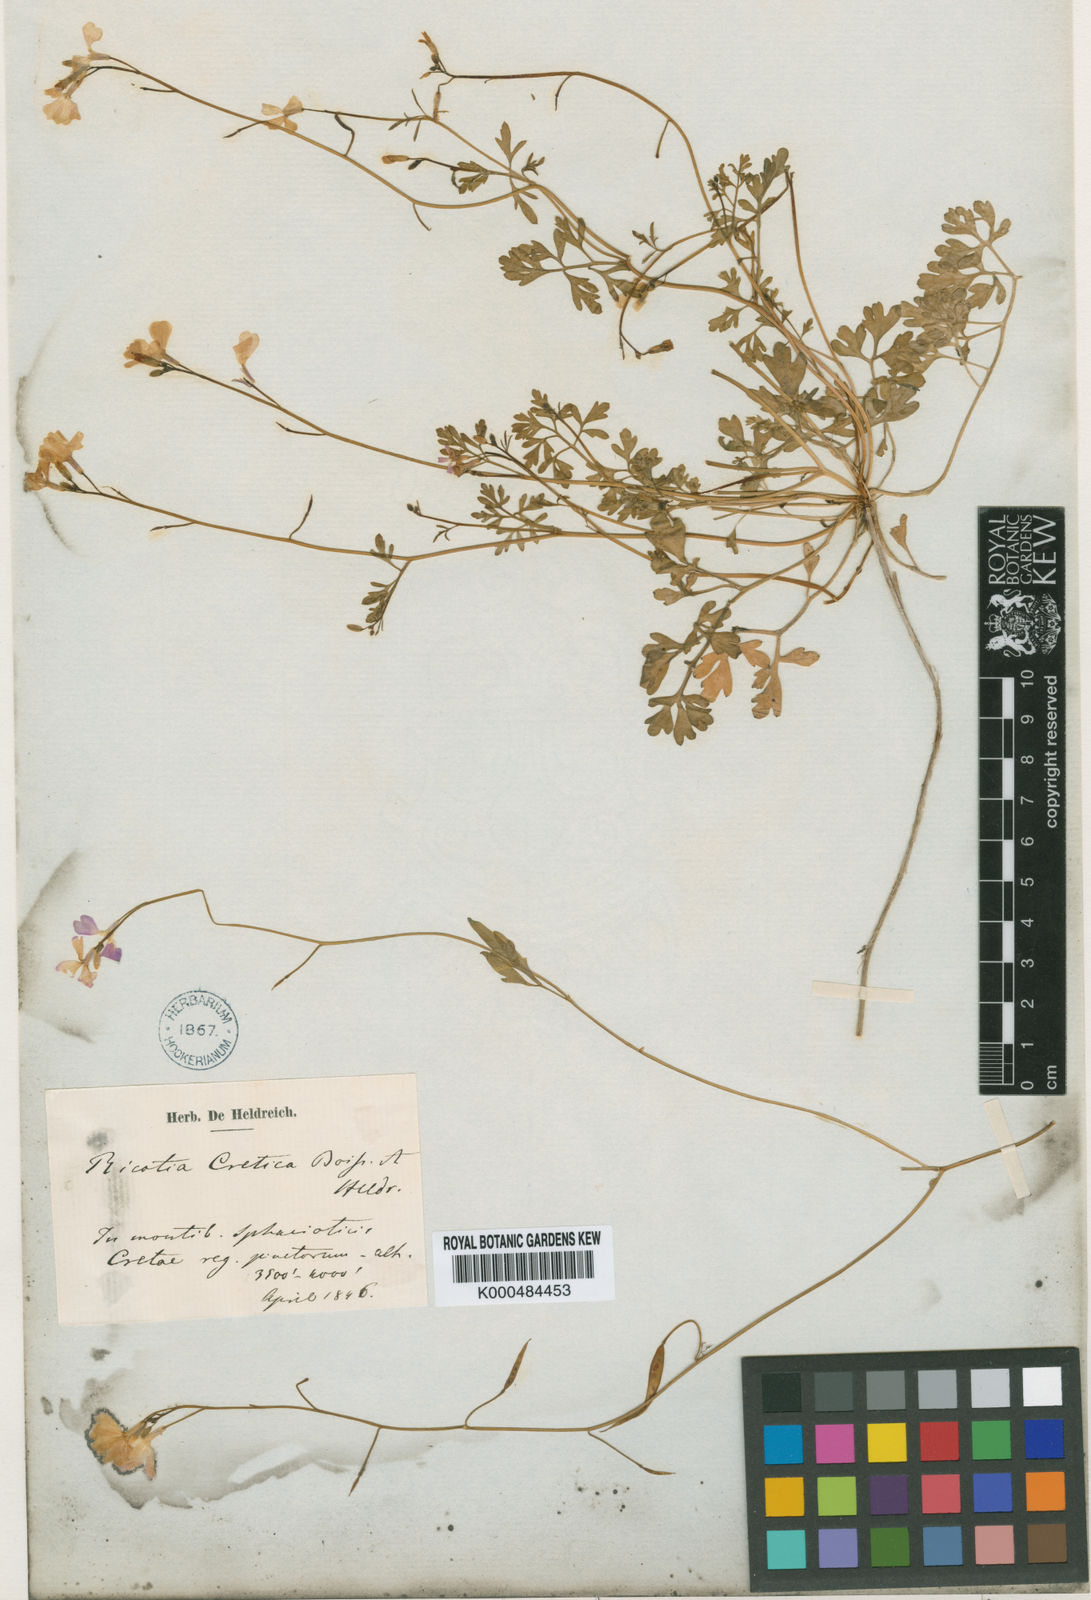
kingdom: Plantae
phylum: Tracheophyta
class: Magnoliopsida
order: Brassicales
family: Brassicaceae
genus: Ricotia
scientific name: Ricotia cretica
